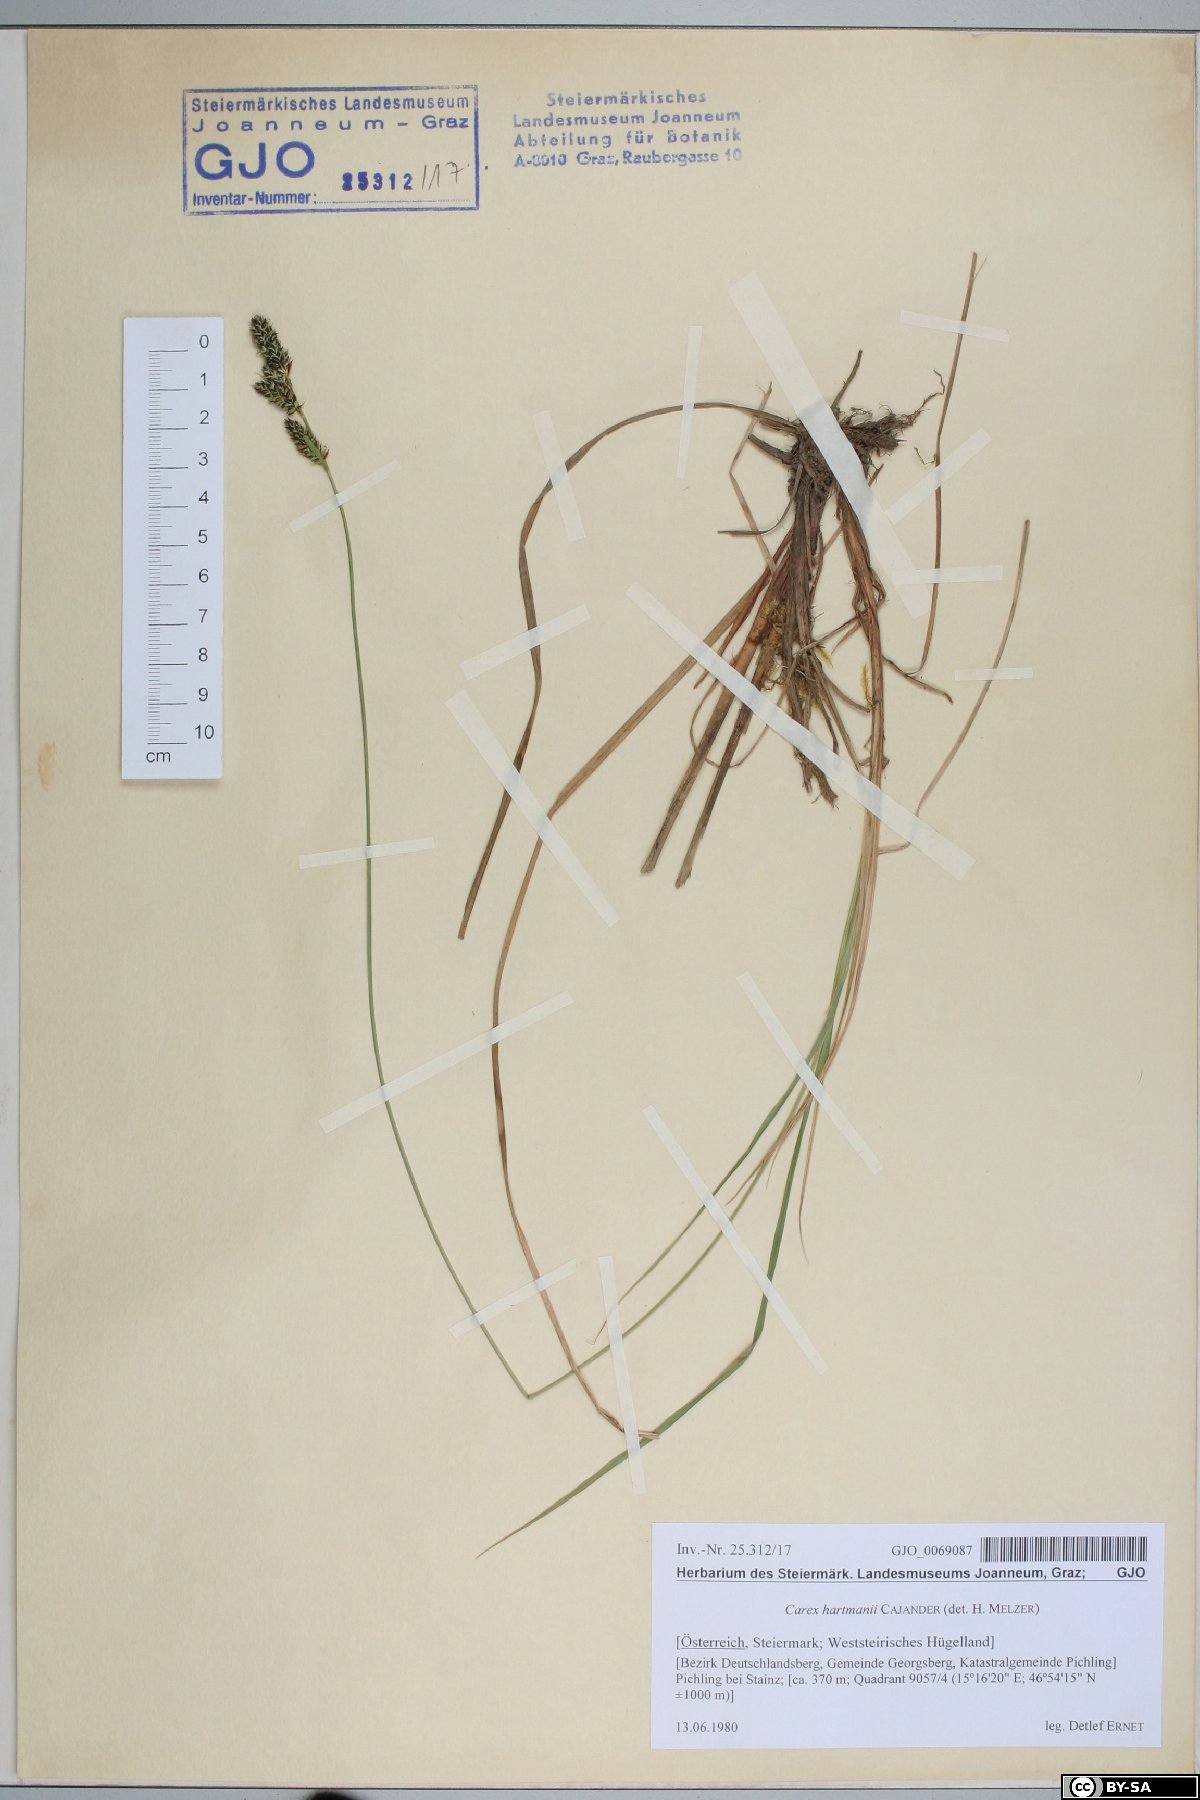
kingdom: Plantae
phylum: Tracheophyta
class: Liliopsida
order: Poales
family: Cyperaceae
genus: Carex
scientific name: Carex hartmaniorum
